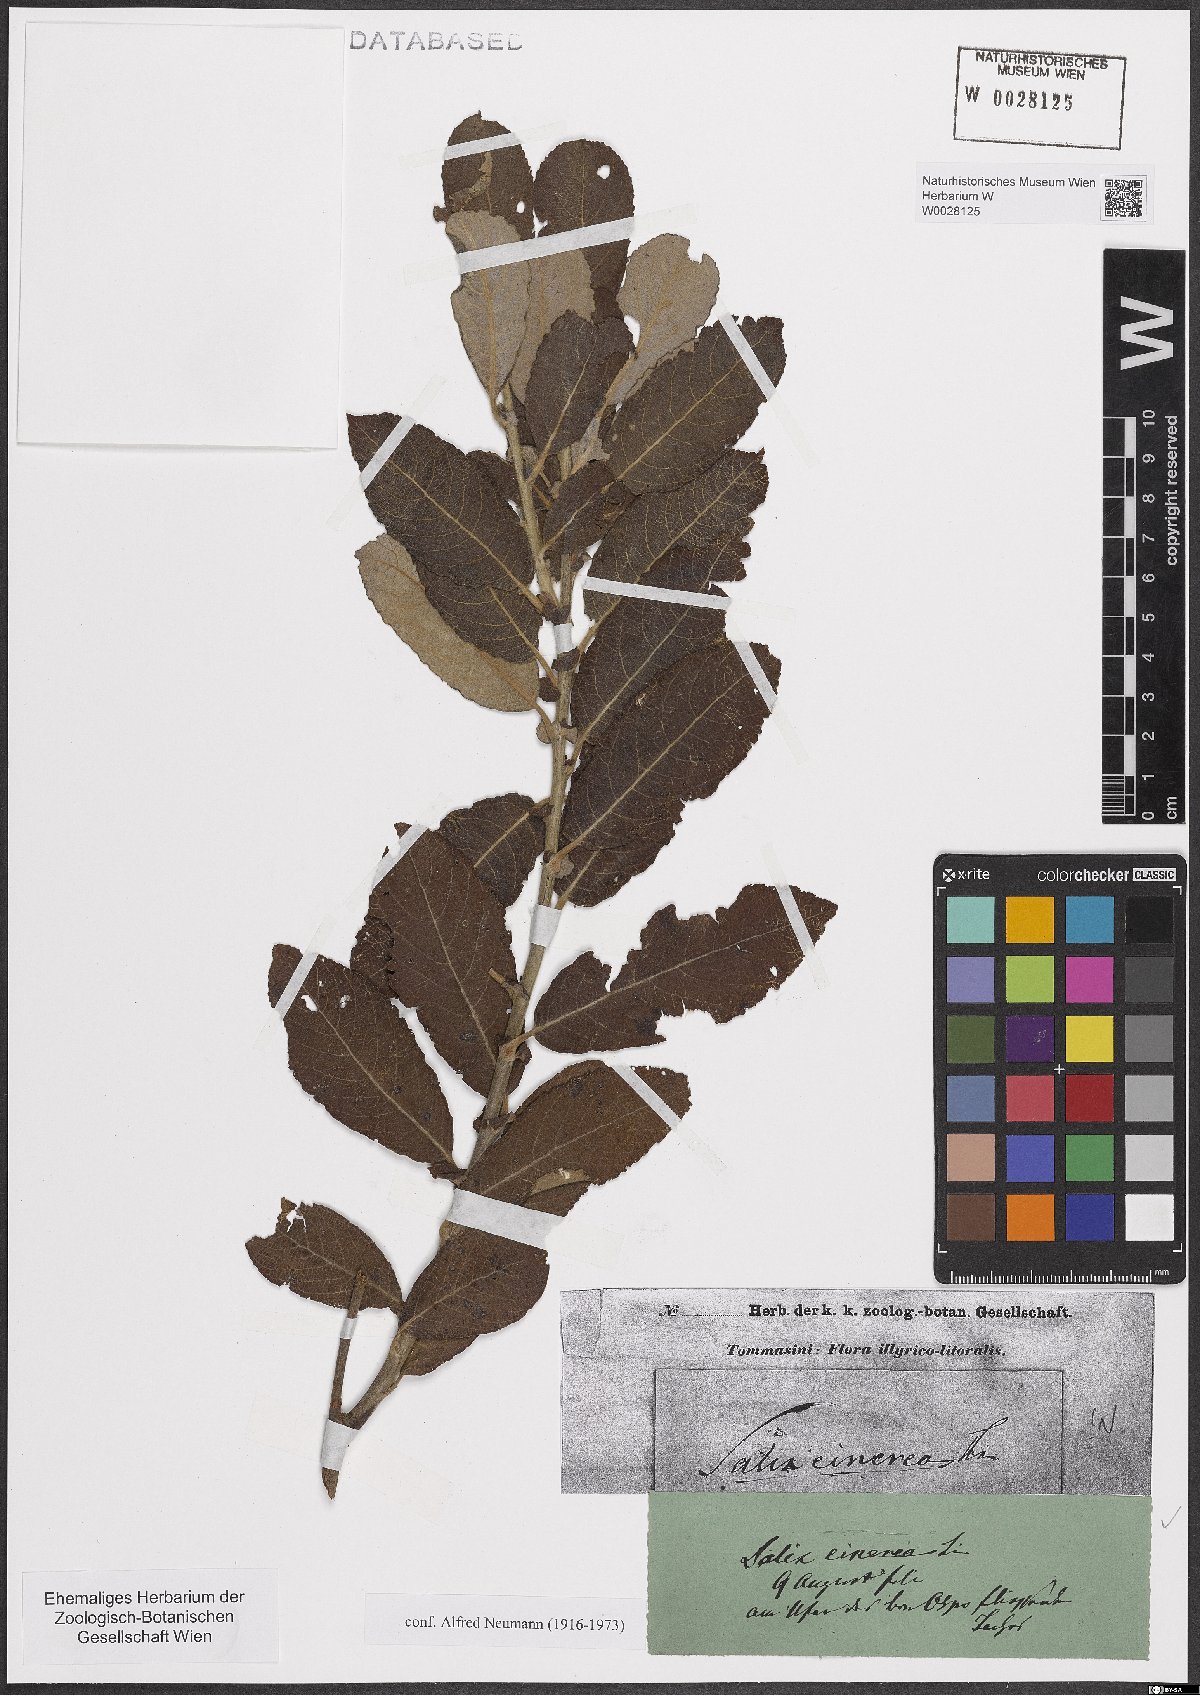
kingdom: Plantae
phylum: Tracheophyta
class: Magnoliopsida
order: Malpighiales
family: Salicaceae
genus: Salix
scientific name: Salix cinerea
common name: Common sallow
